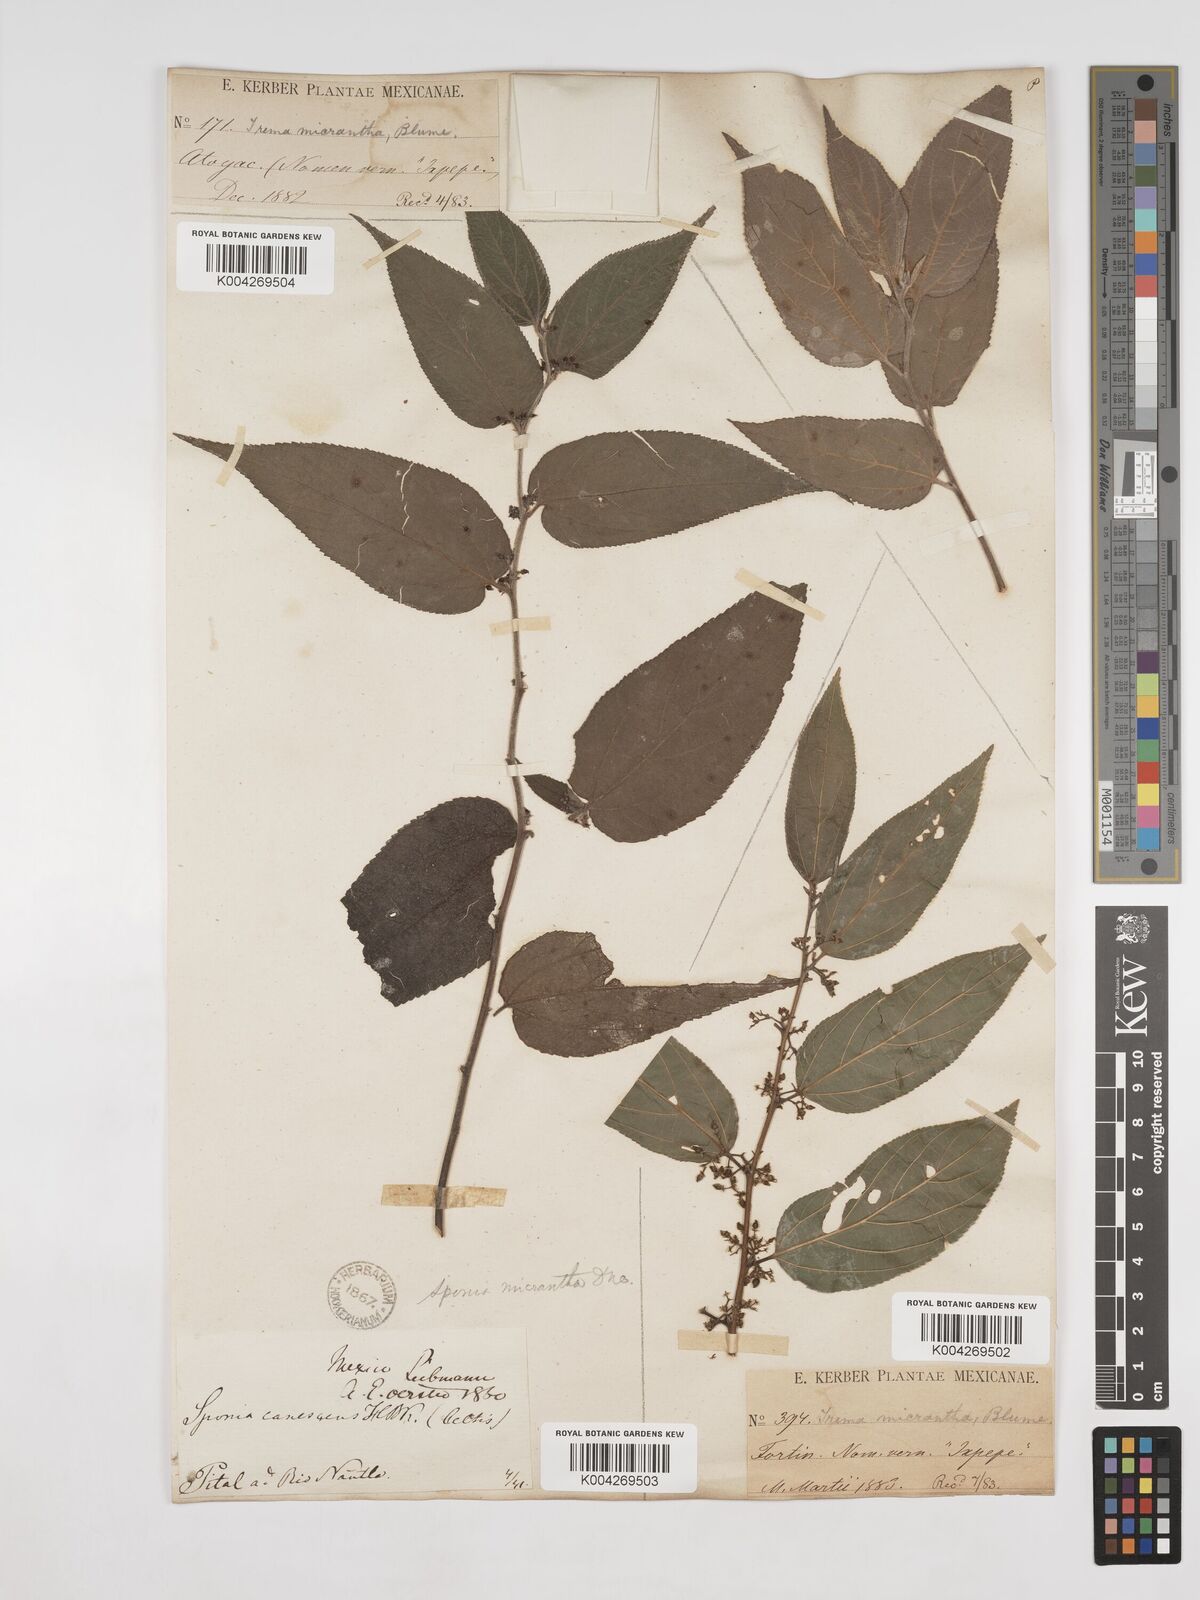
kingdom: Plantae
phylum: Tracheophyta
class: Magnoliopsida
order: Rosales
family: Cannabaceae
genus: Trema
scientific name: Trema micranthum
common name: Jamaican nettletree
